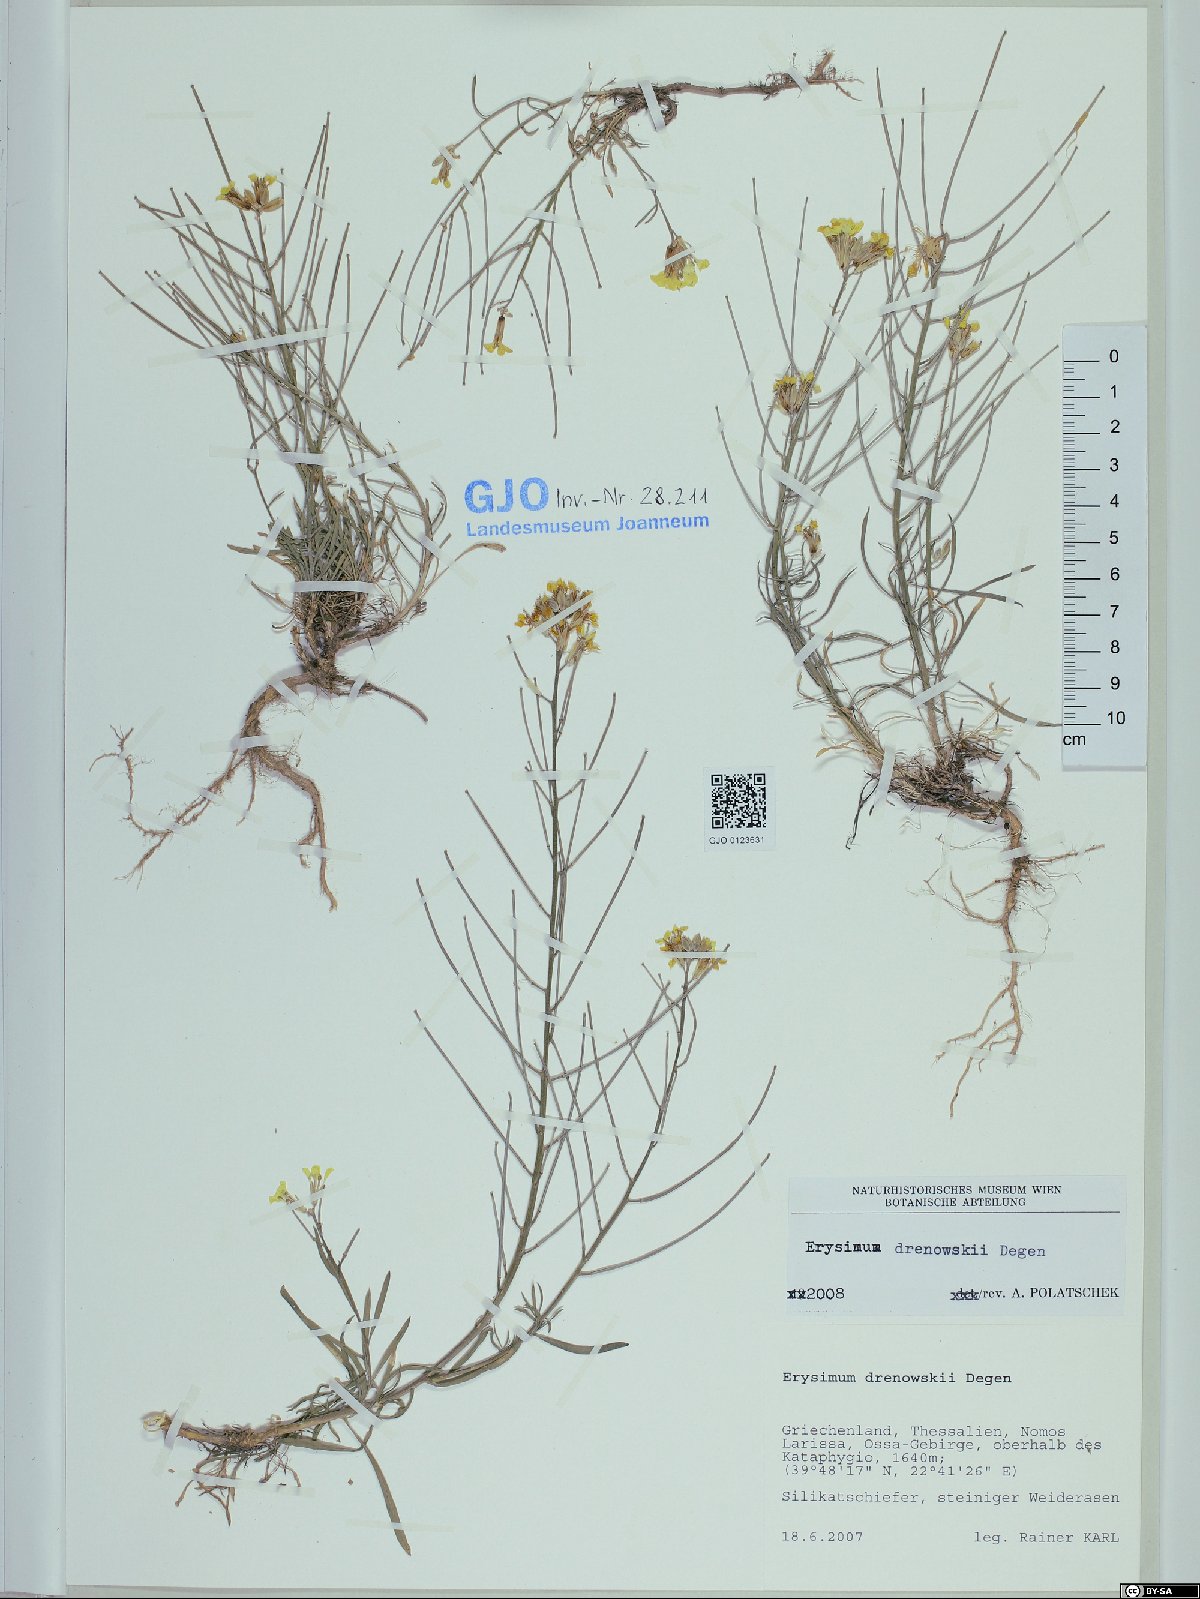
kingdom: Plantae
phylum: Tracheophyta
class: Magnoliopsida
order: Brassicales
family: Brassicaceae
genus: Erysimum
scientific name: Erysimum drenowskii
